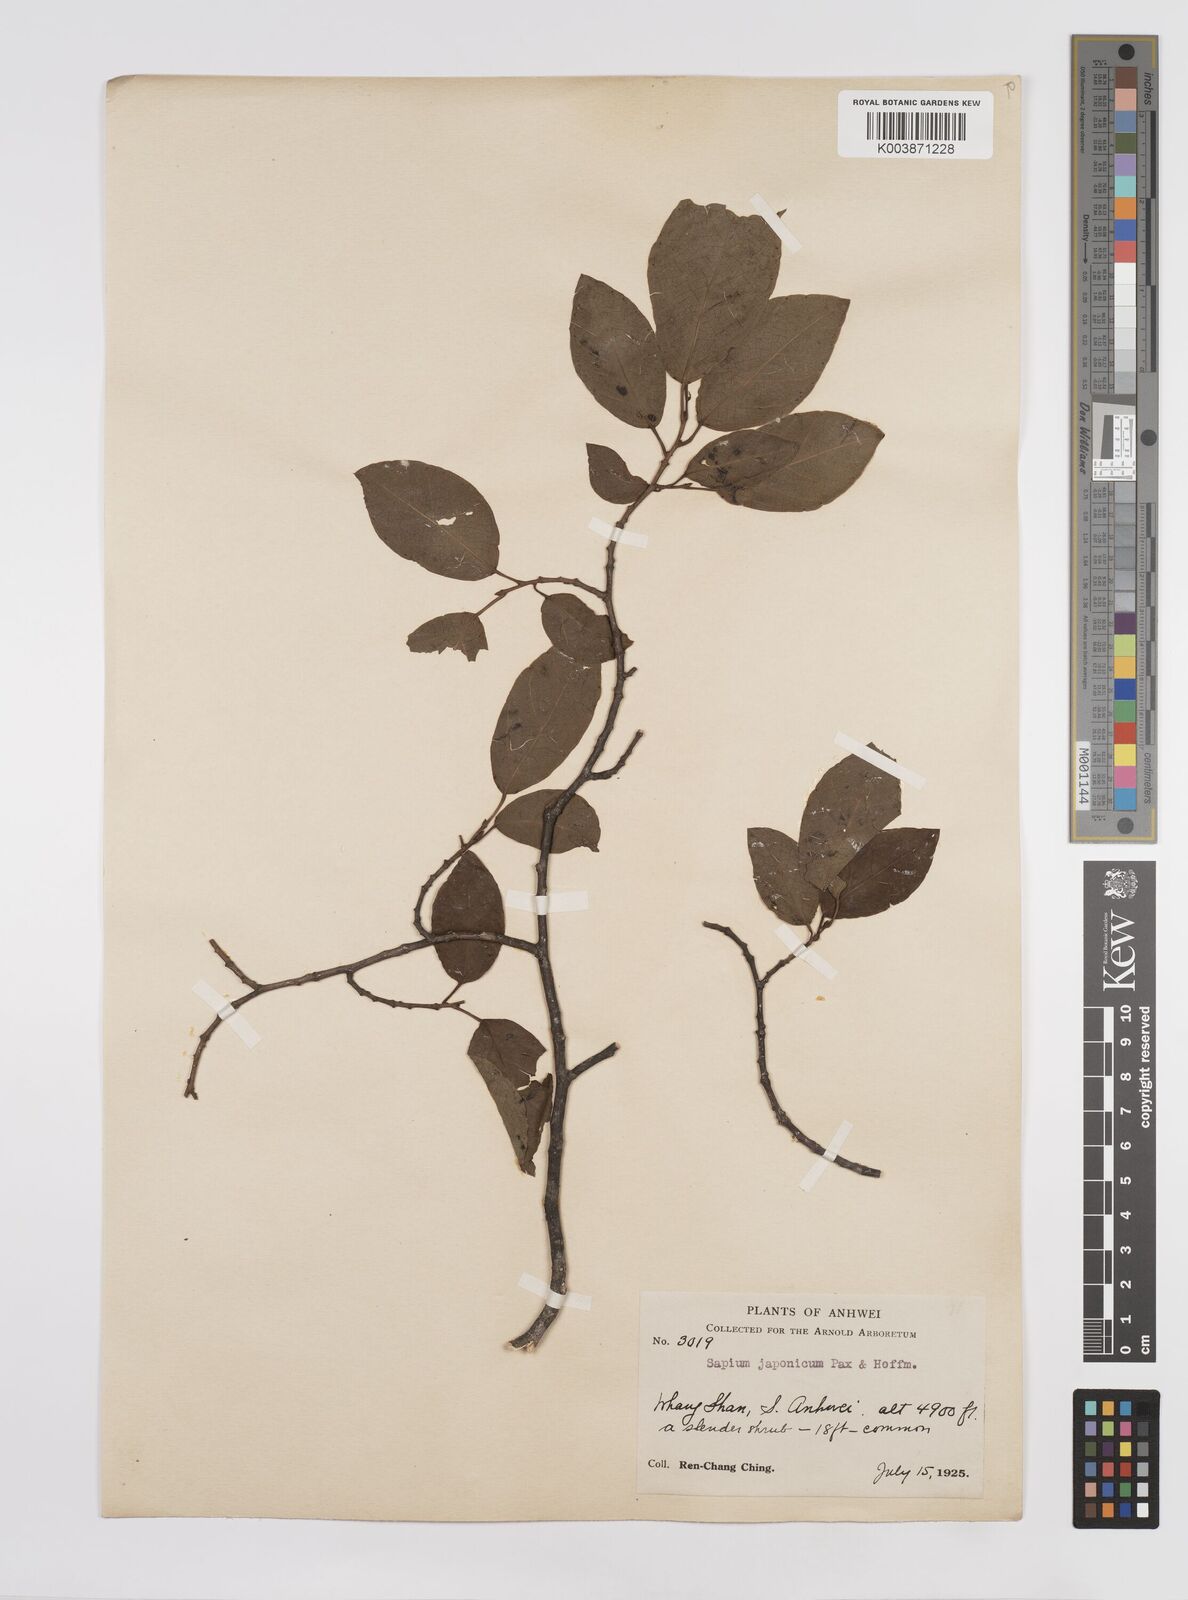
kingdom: Plantae
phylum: Tracheophyta
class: Magnoliopsida
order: Malpighiales
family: Euphorbiaceae
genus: Neoshirakia
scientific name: Neoshirakia japonica
